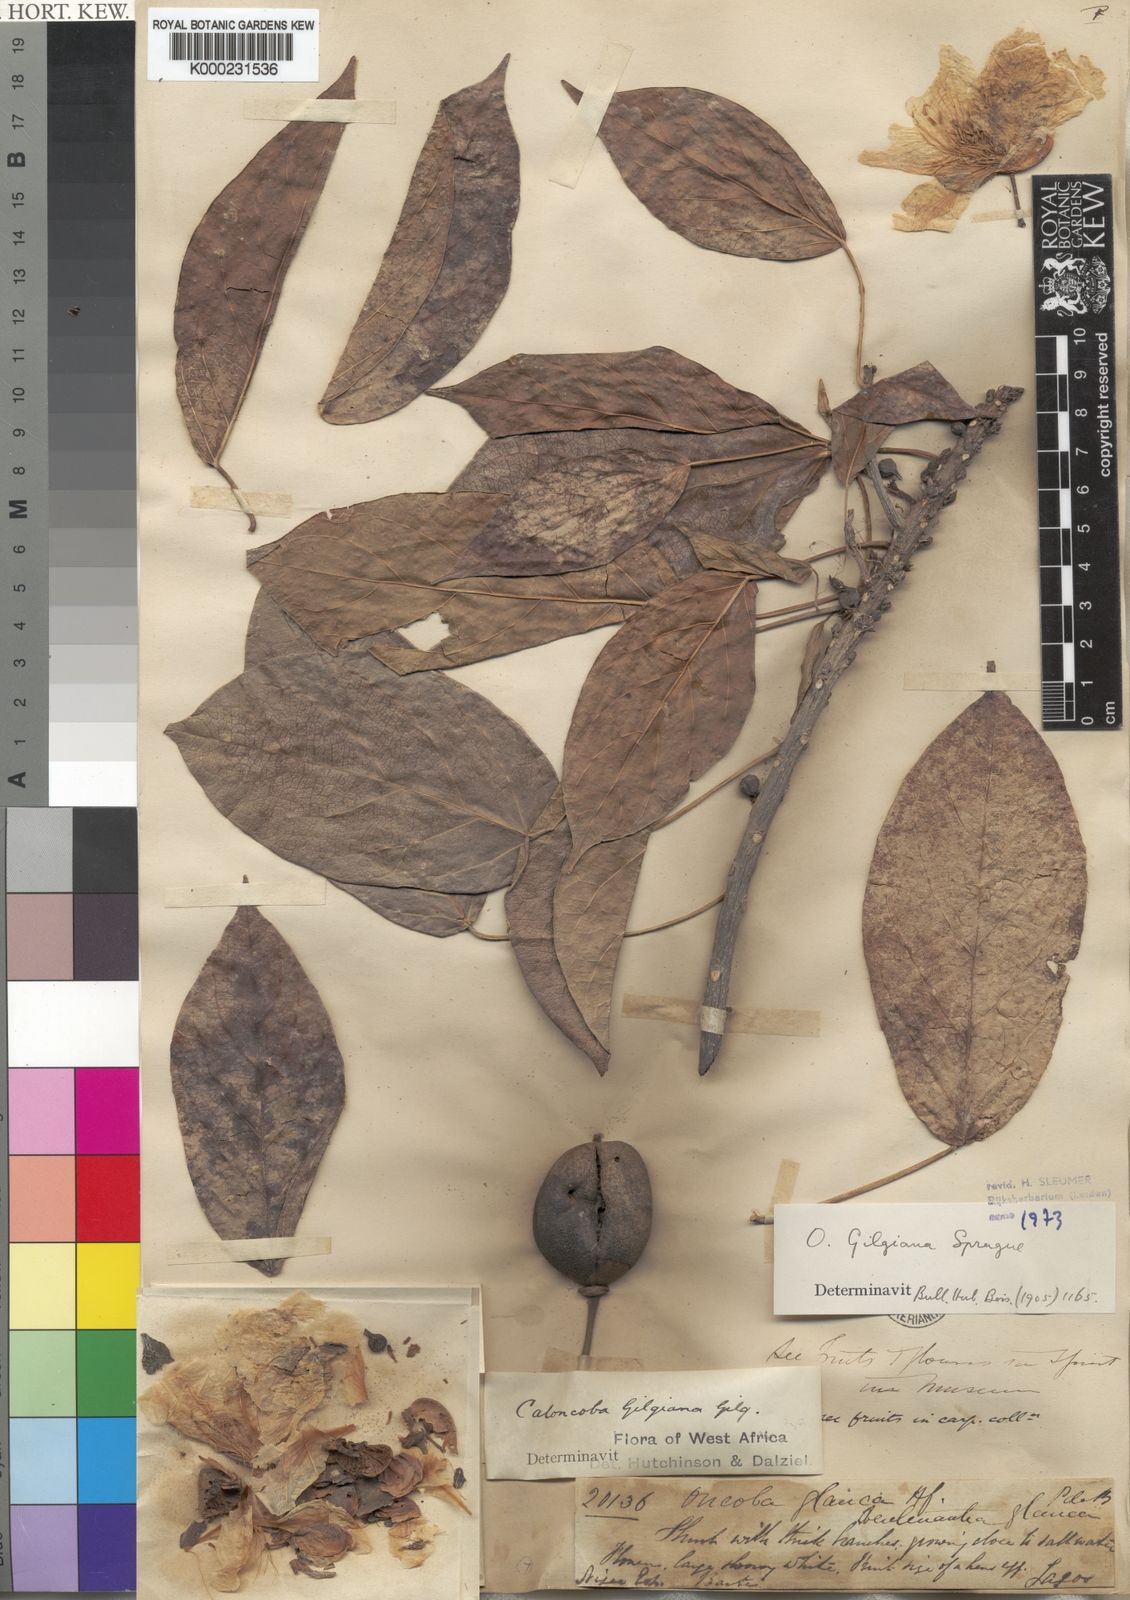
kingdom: Plantae
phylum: Tracheophyta
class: Magnoliopsida
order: Malpighiales
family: Achariaceae
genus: Caloncoba
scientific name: Caloncoba gilgiana
